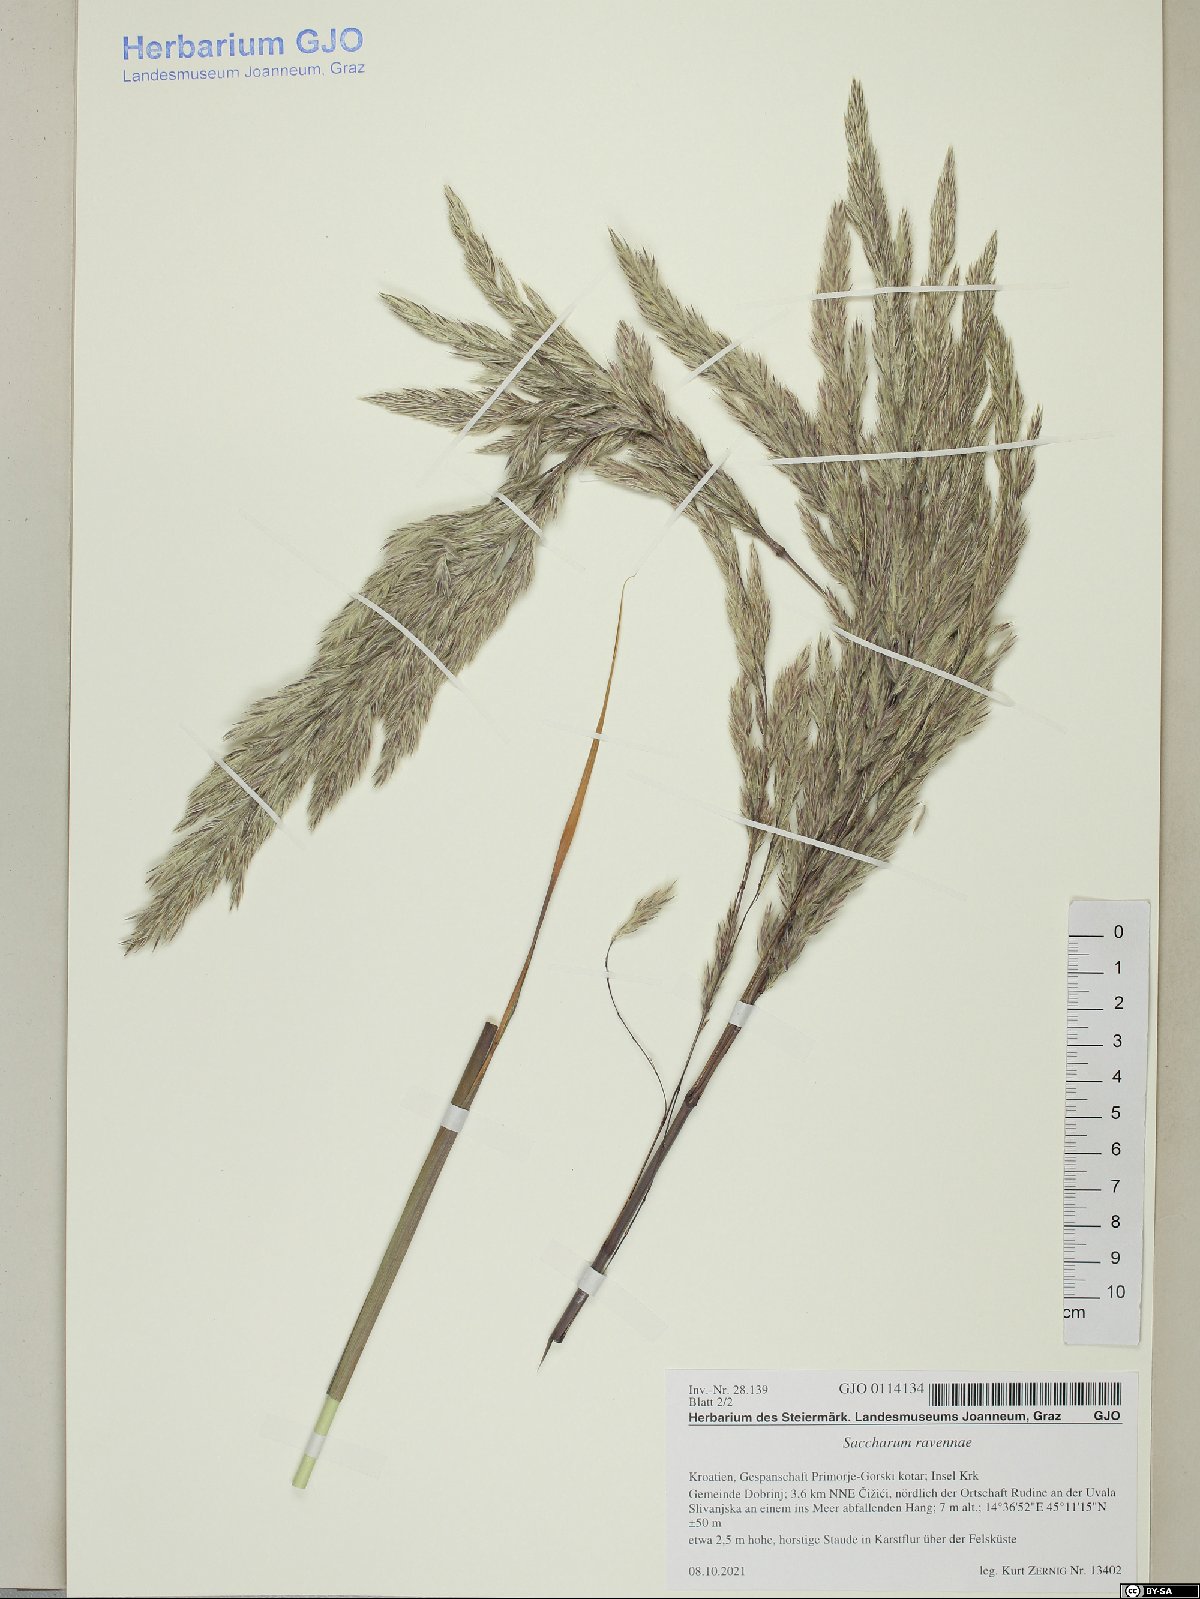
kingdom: Plantae
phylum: Tracheophyta
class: Liliopsida
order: Poales
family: Poaceae
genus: Tripidium
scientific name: Tripidium ravennae
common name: Ravenna grass
